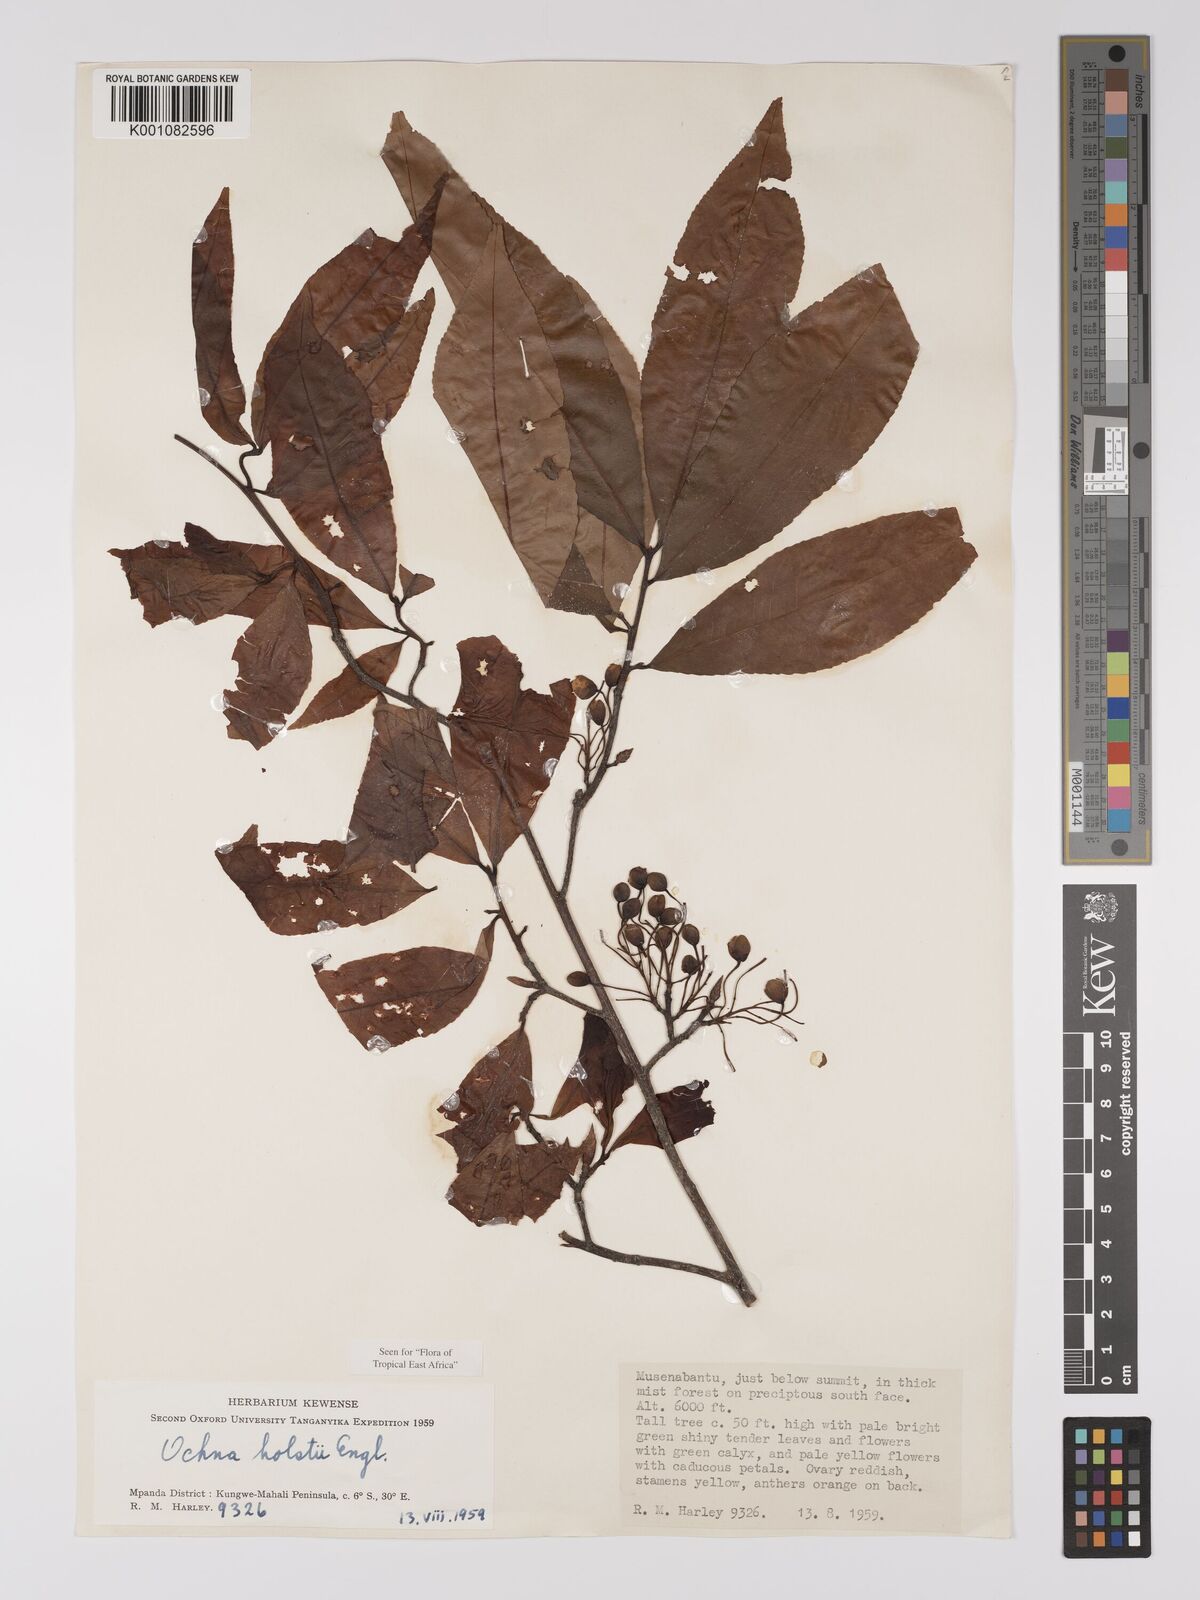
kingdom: Plantae
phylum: Tracheophyta
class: Magnoliopsida
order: Malpighiales
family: Ochnaceae
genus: Ochna
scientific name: Ochna holstii
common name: Red ironwood
